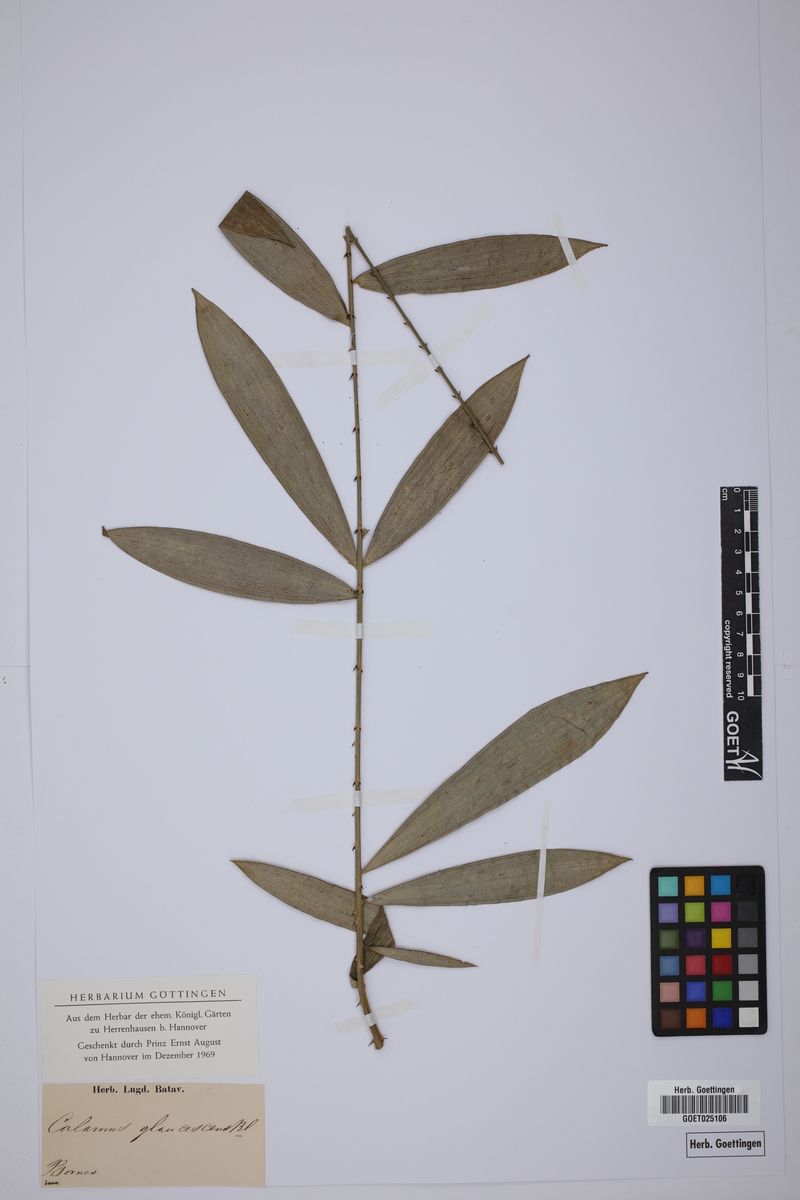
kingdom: Plantae
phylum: Tracheophyta
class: Liliopsida
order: Arecales
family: Arecaceae
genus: Calamus
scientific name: Calamus caesius
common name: Rattan palm
